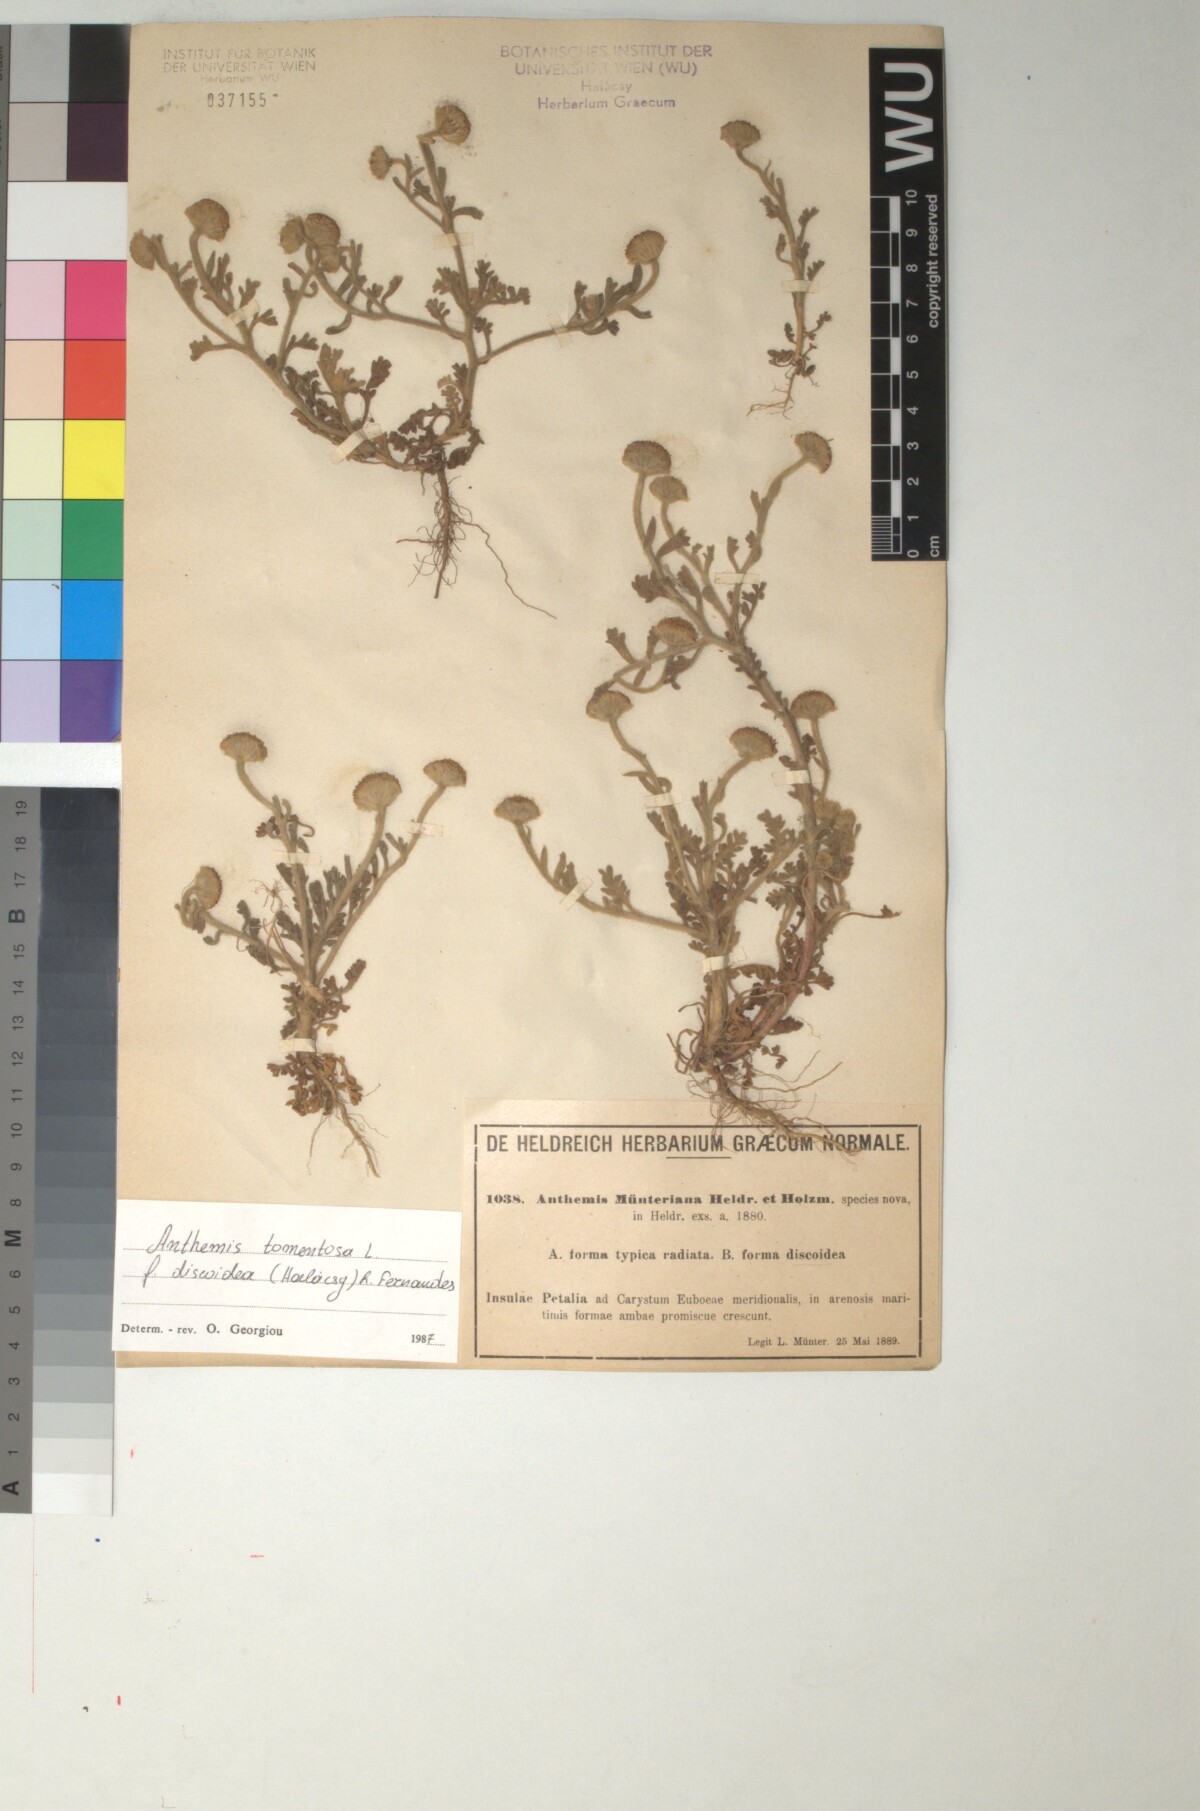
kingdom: Plantae
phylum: Tracheophyta
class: Magnoliopsida
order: Asterales
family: Asteraceae
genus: Anthemis
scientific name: Anthemis tomentosa
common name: Woolly chamomile
